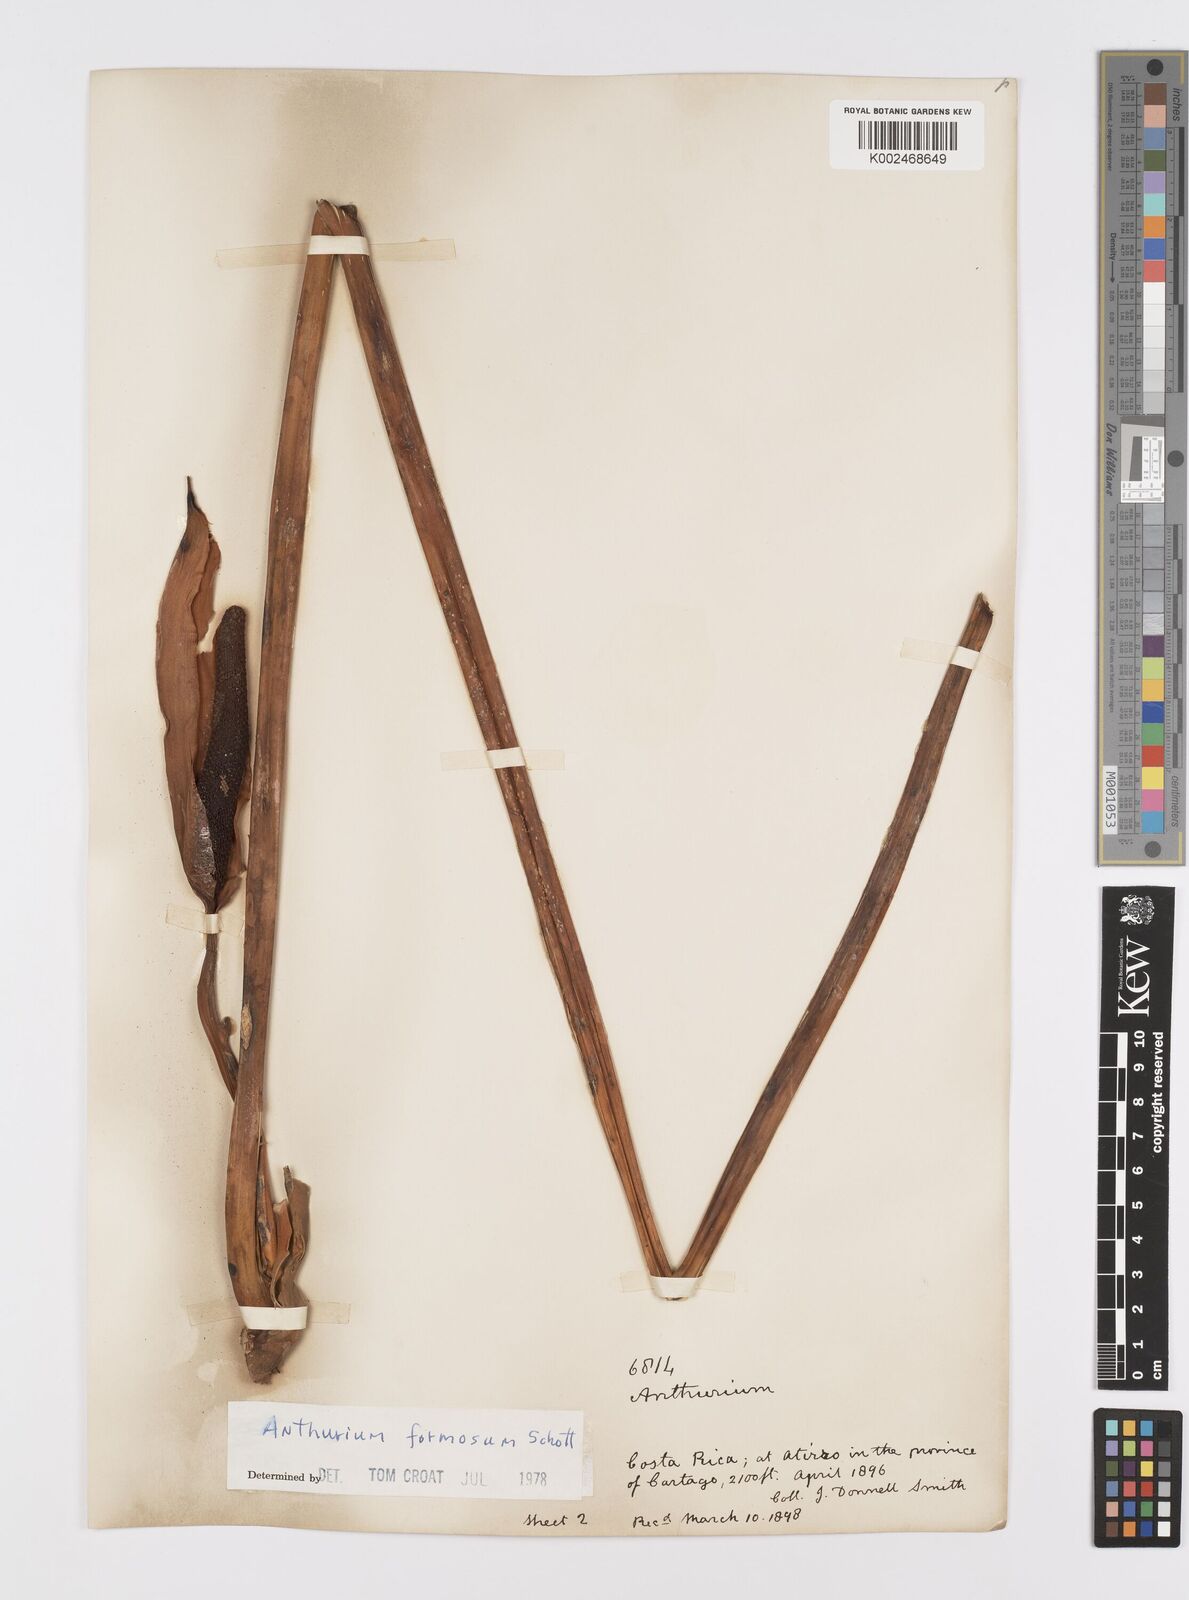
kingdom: Plantae
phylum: Tracheophyta
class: Liliopsida
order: Alismatales
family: Araceae
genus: Anthurium
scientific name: Anthurium formosum
